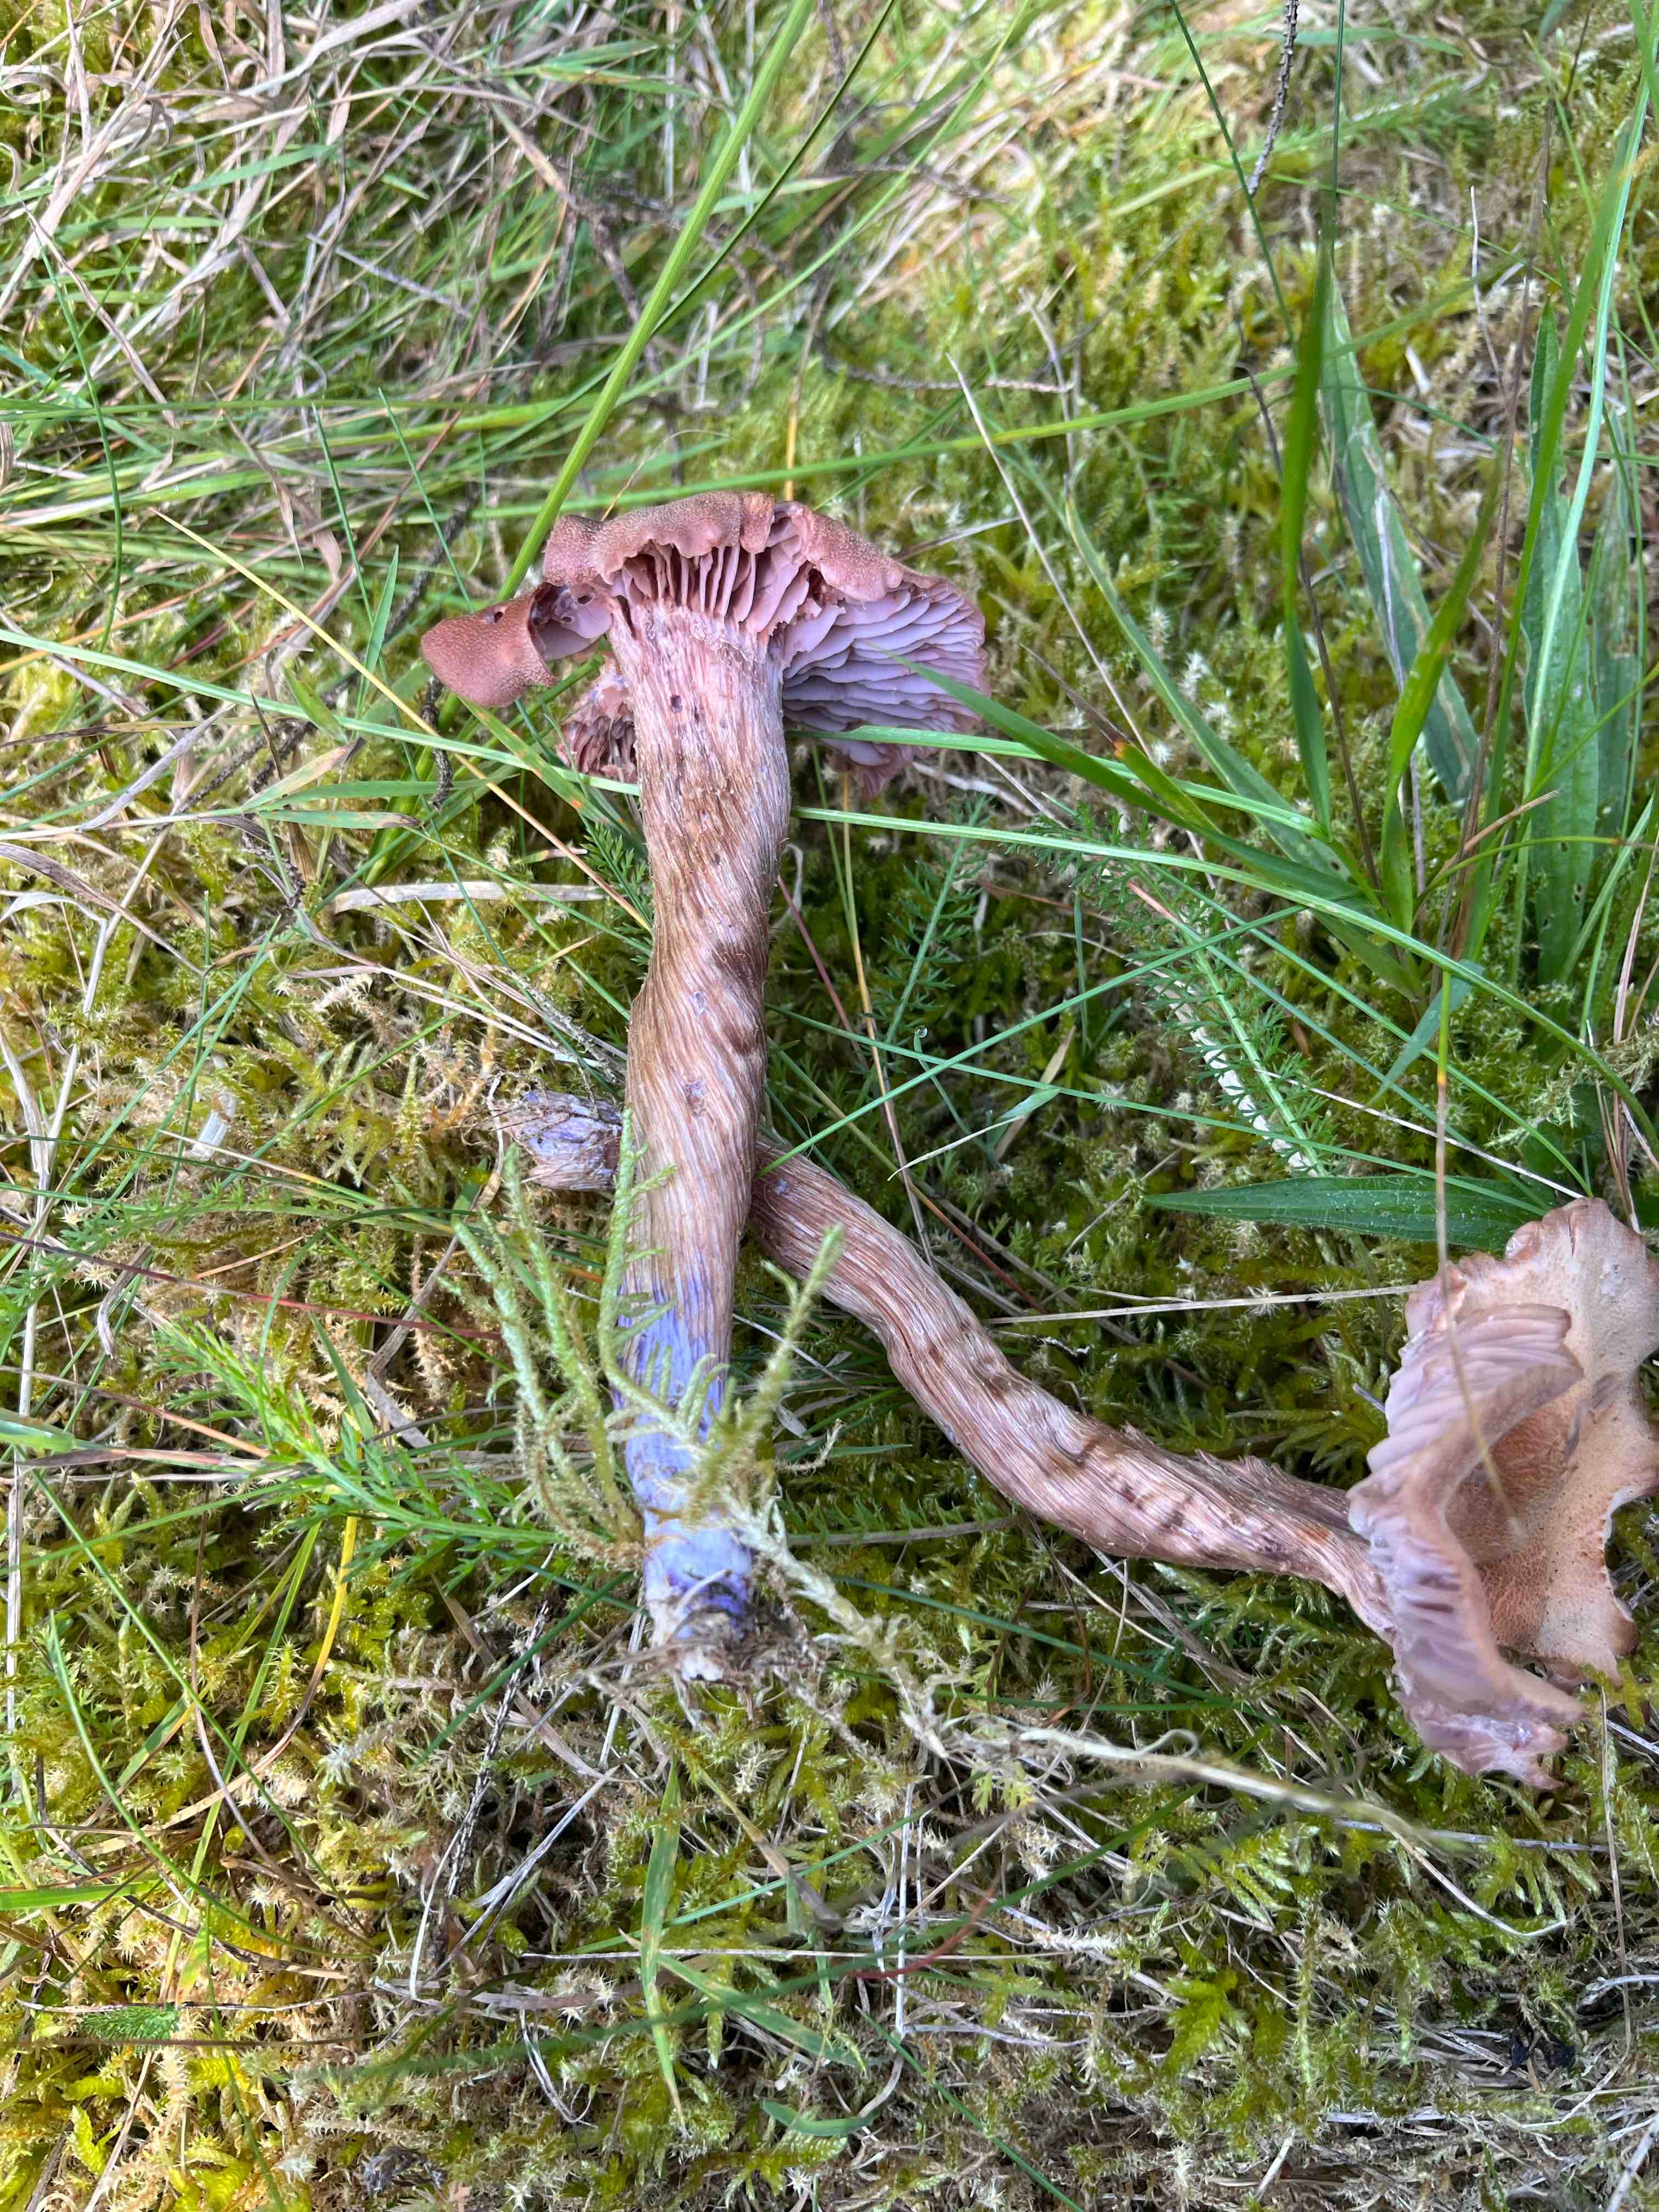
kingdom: Fungi
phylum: Basidiomycota
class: Agaricomycetes
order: Agaricales
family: Hydnangiaceae
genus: Laccaria
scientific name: Laccaria bicolor
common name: tvefarvet ametysthat
